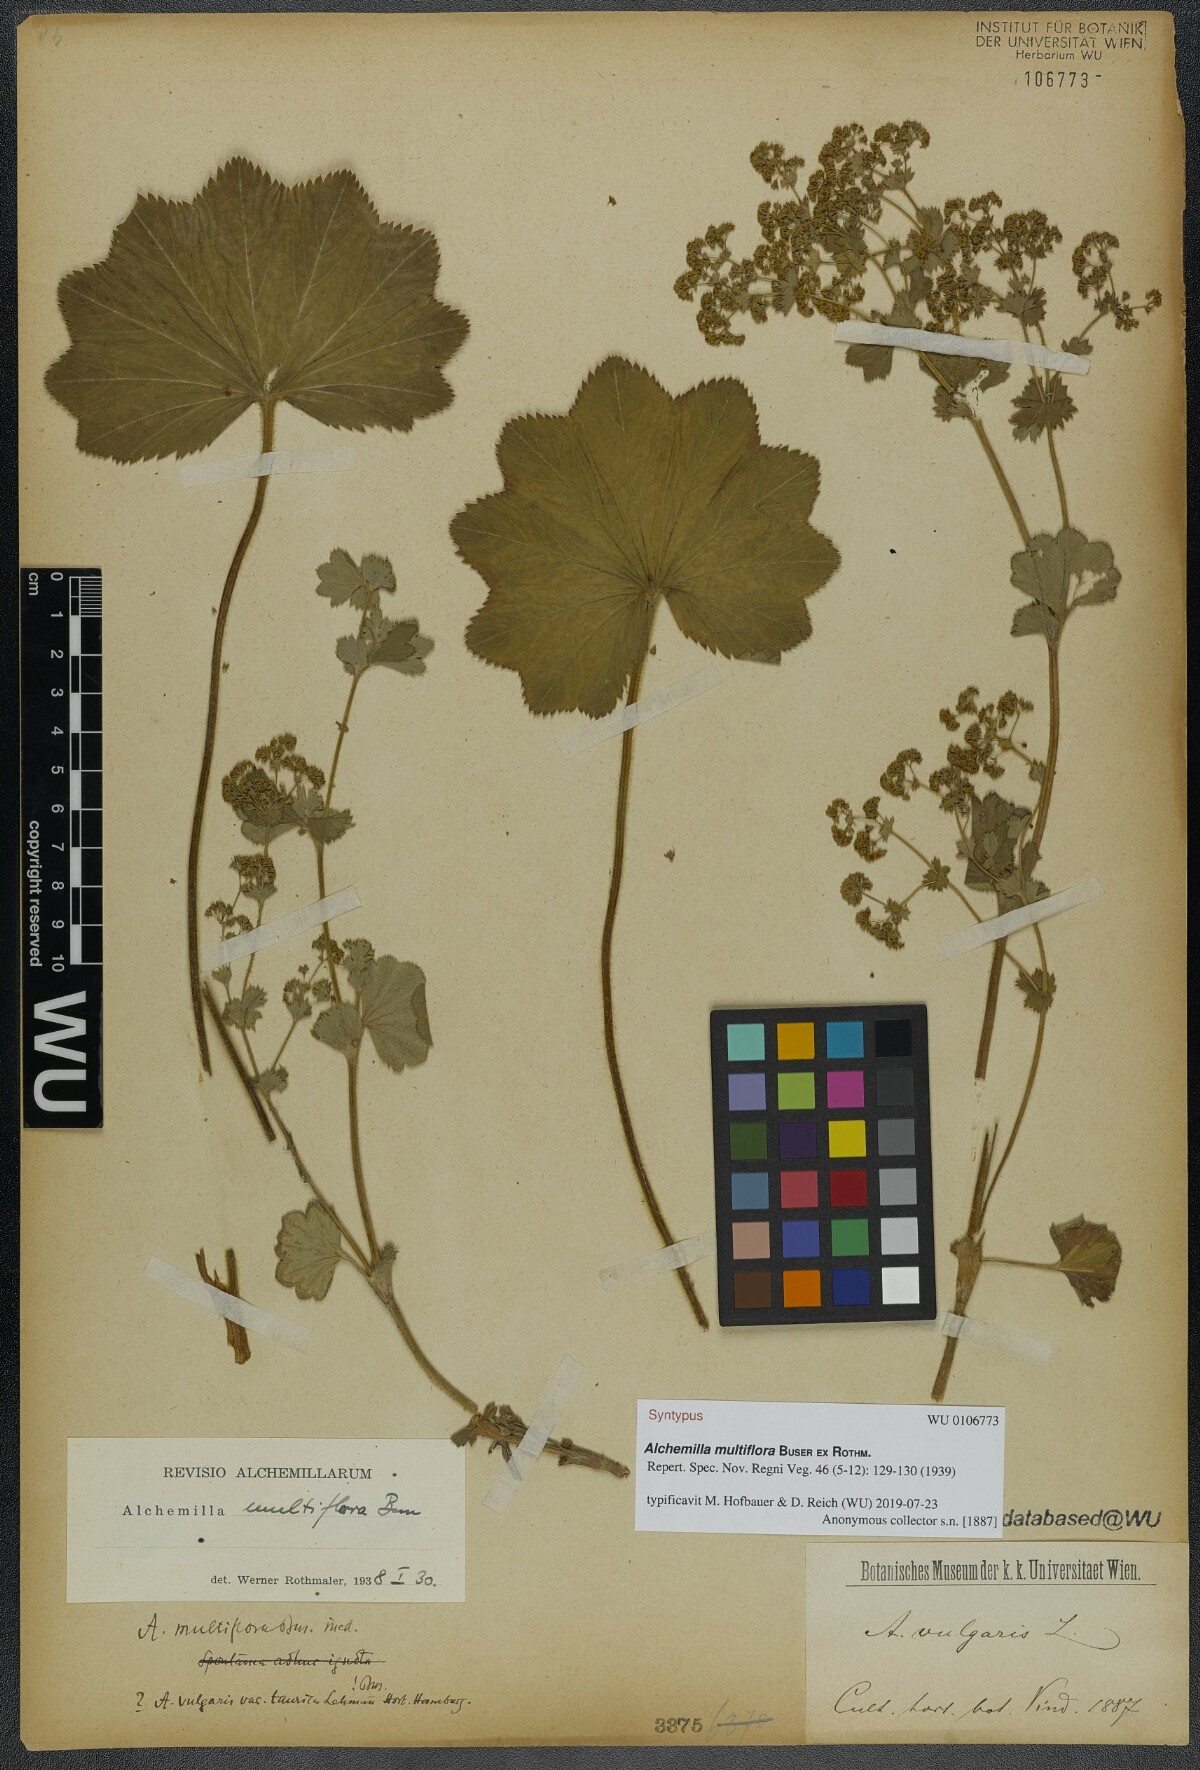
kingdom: Plantae
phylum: Tracheophyta
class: Magnoliopsida
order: Rosales
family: Rosaceae
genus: Alchemilla
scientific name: Alchemilla tytthantha
